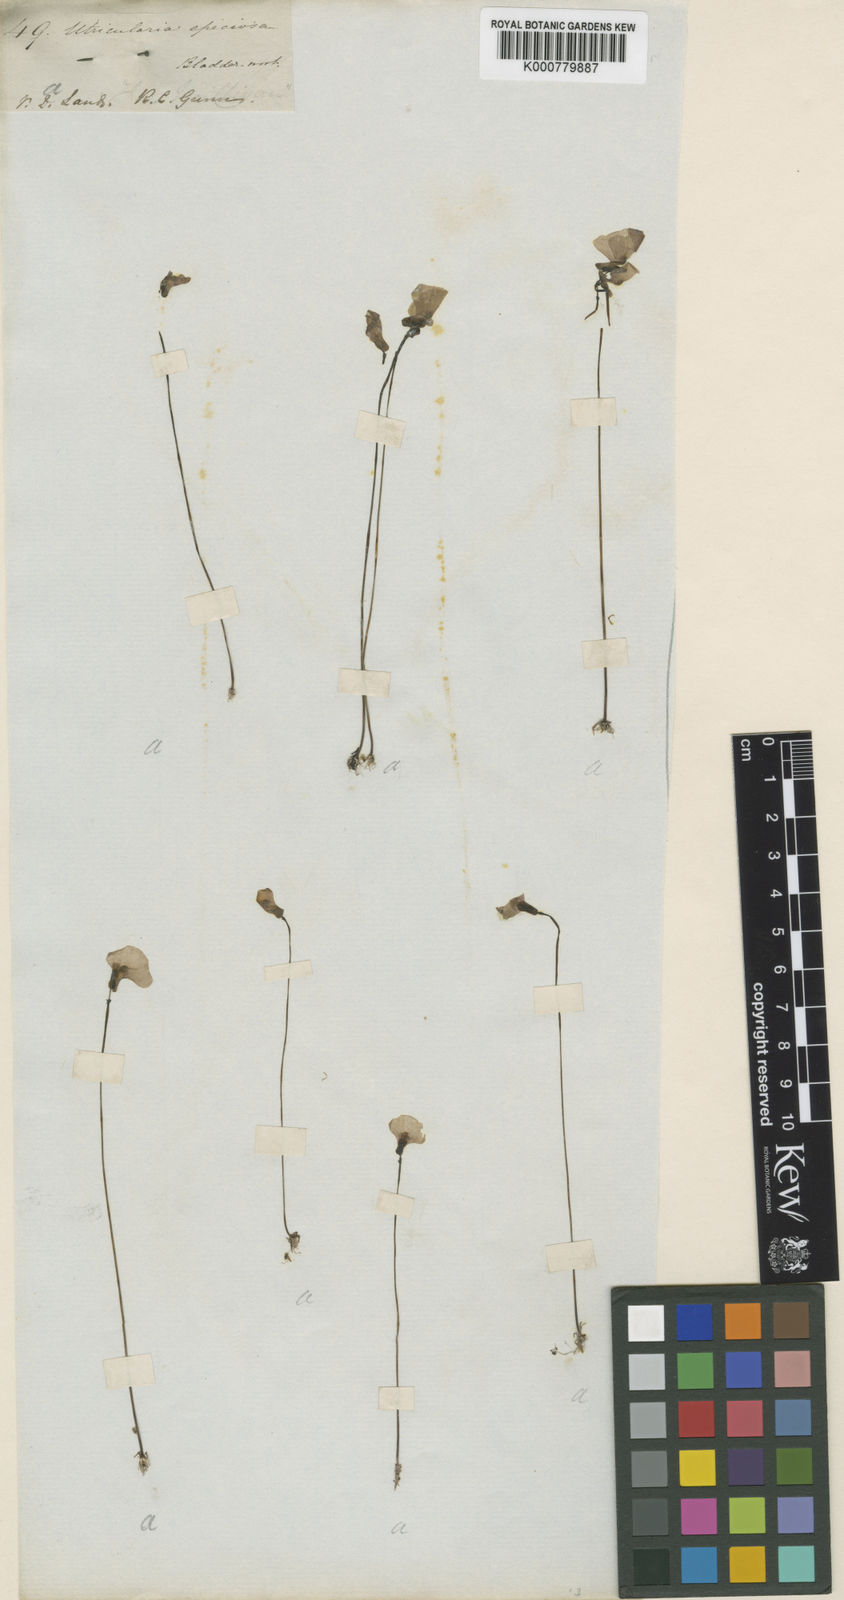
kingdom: Plantae
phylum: Tracheophyta
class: Magnoliopsida
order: Lamiales
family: Lentibulariaceae
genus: Utricularia
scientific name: Utricularia dichotoma
